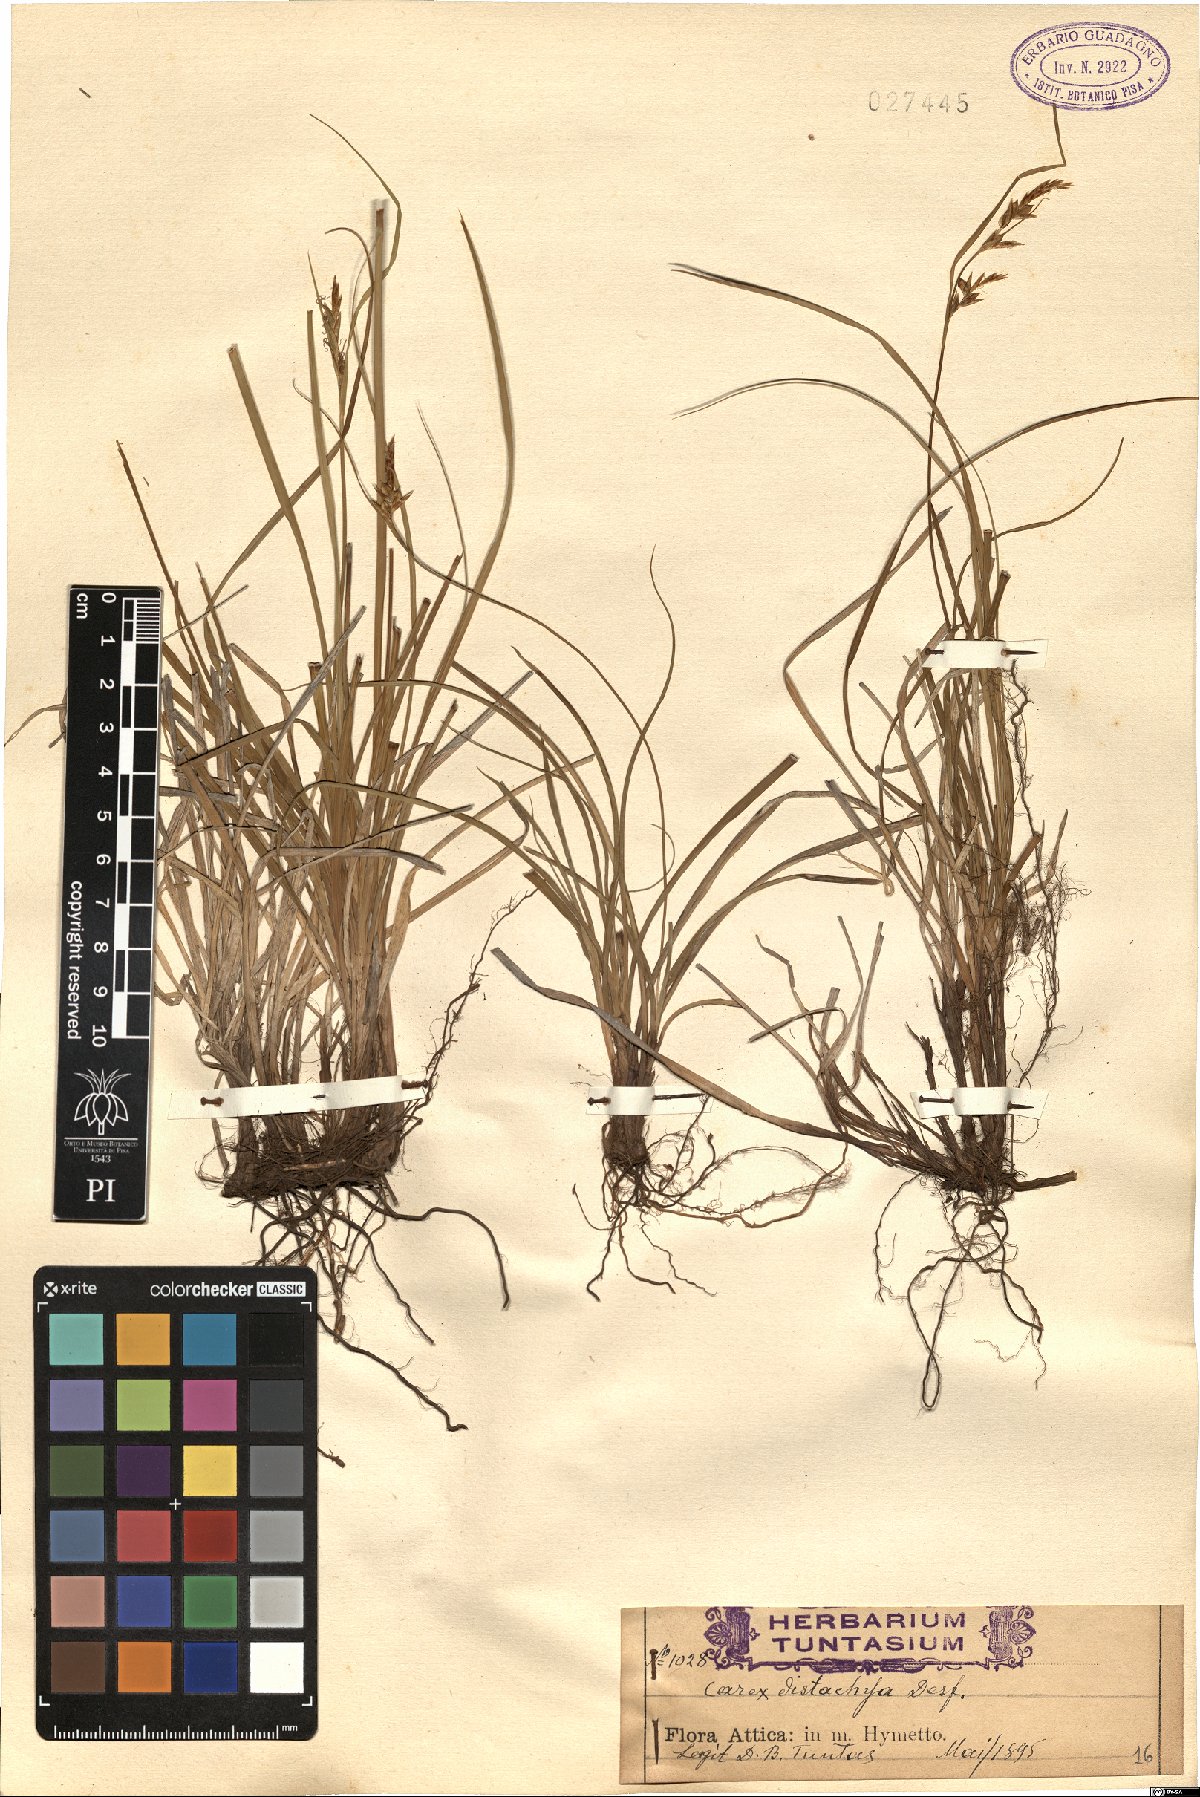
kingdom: Plantae
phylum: Tracheophyta
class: Liliopsida
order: Poales
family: Cyperaceae
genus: Carex
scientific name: Carex distachya
